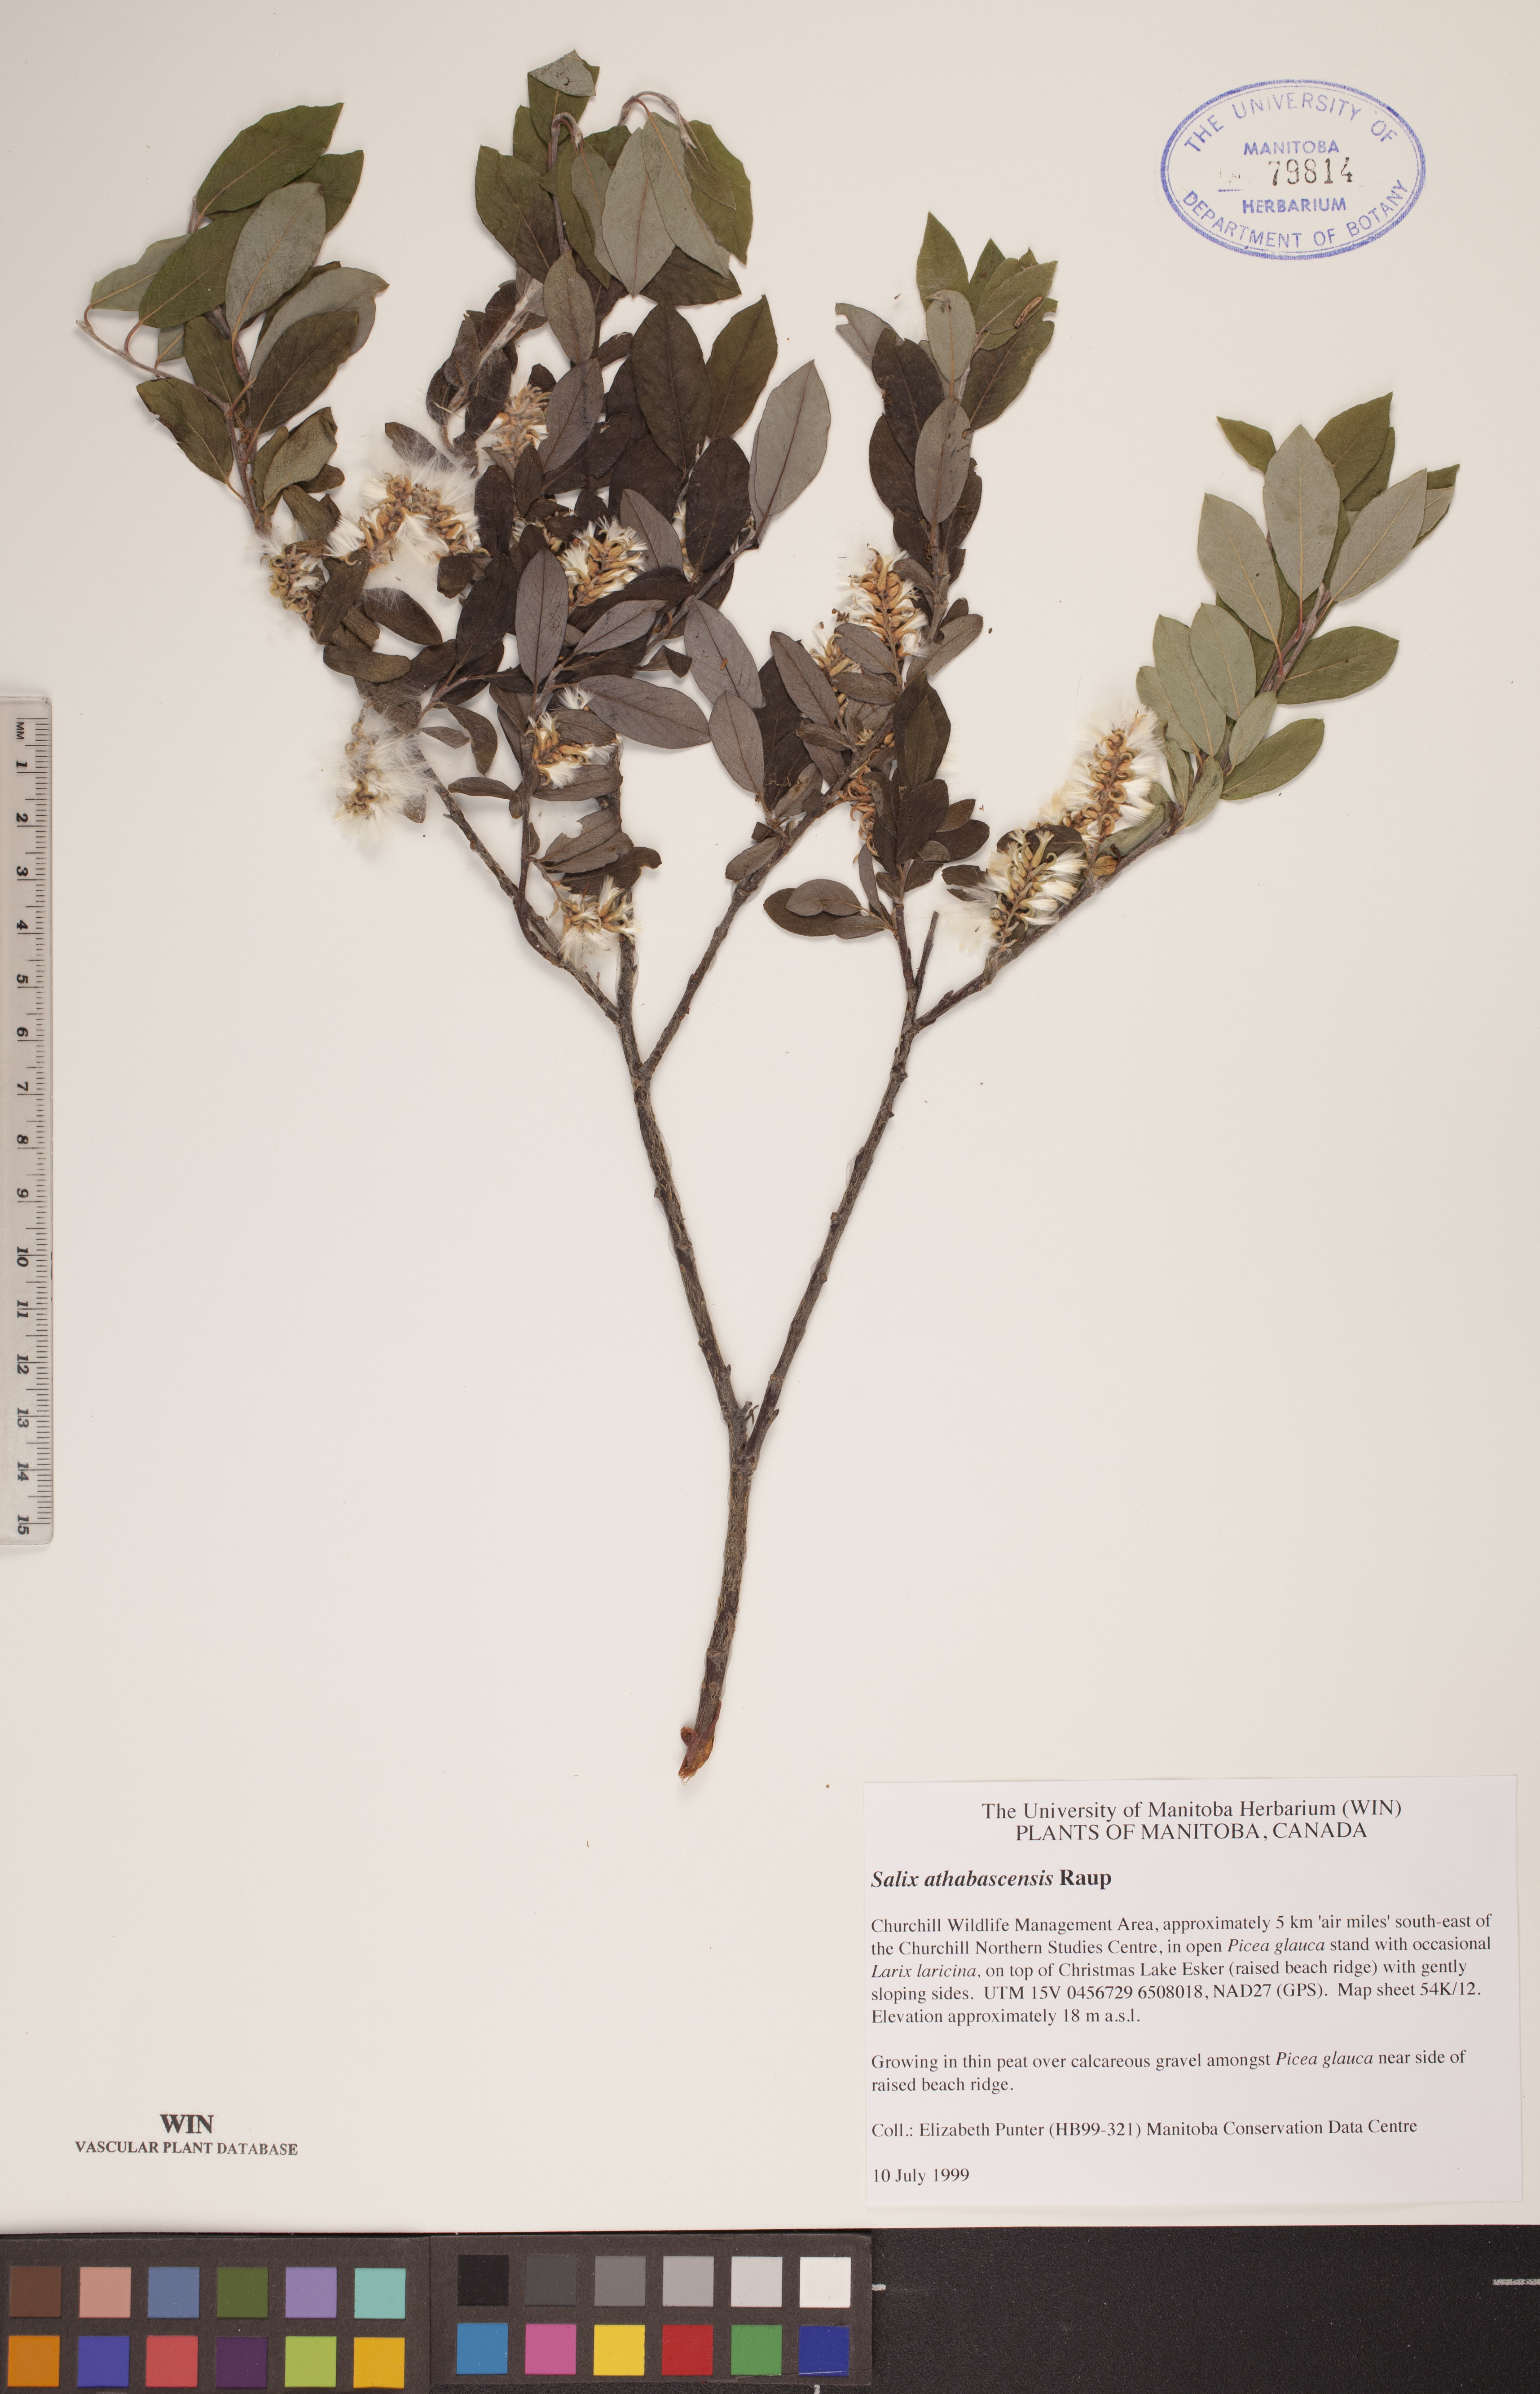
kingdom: Plantae
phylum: Tracheophyta
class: Magnoliopsida
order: Malpighiales
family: Salicaceae
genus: Salix
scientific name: Salix athabascensis
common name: Athabasca willow
